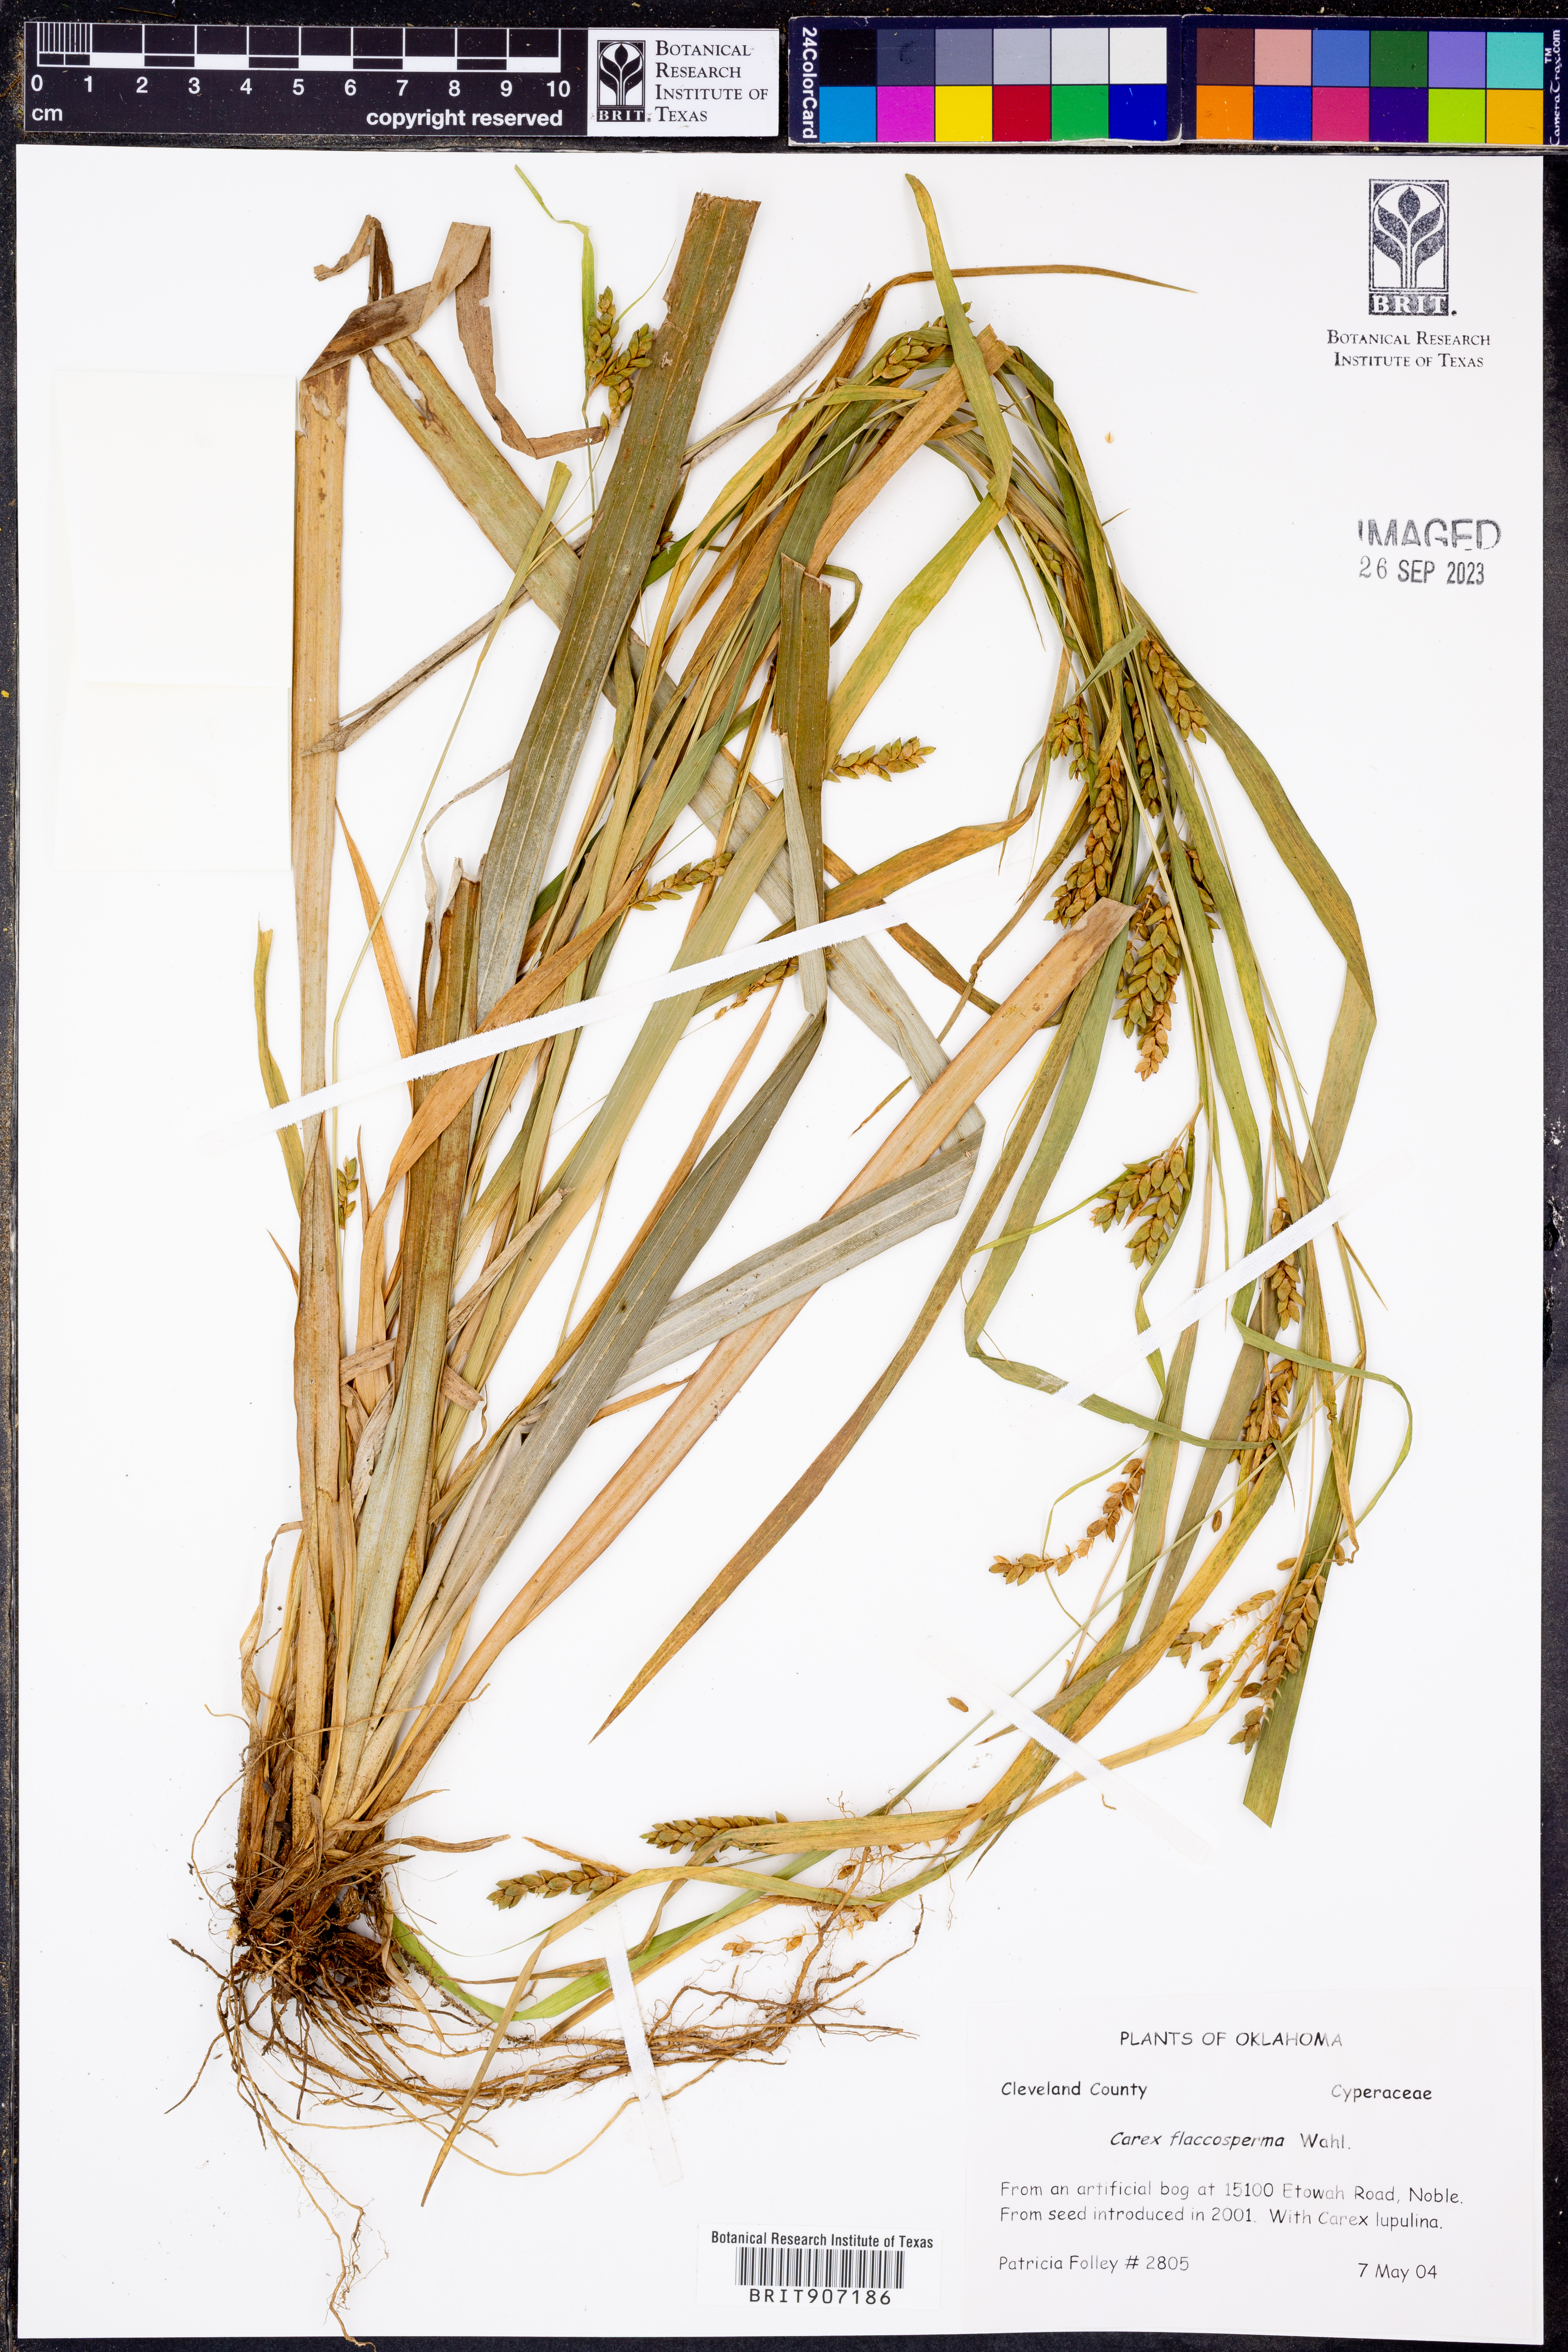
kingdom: Plantae
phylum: Tracheophyta
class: Liliopsida
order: Poales
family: Cyperaceae
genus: Carex
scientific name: Carex flaccosperma
